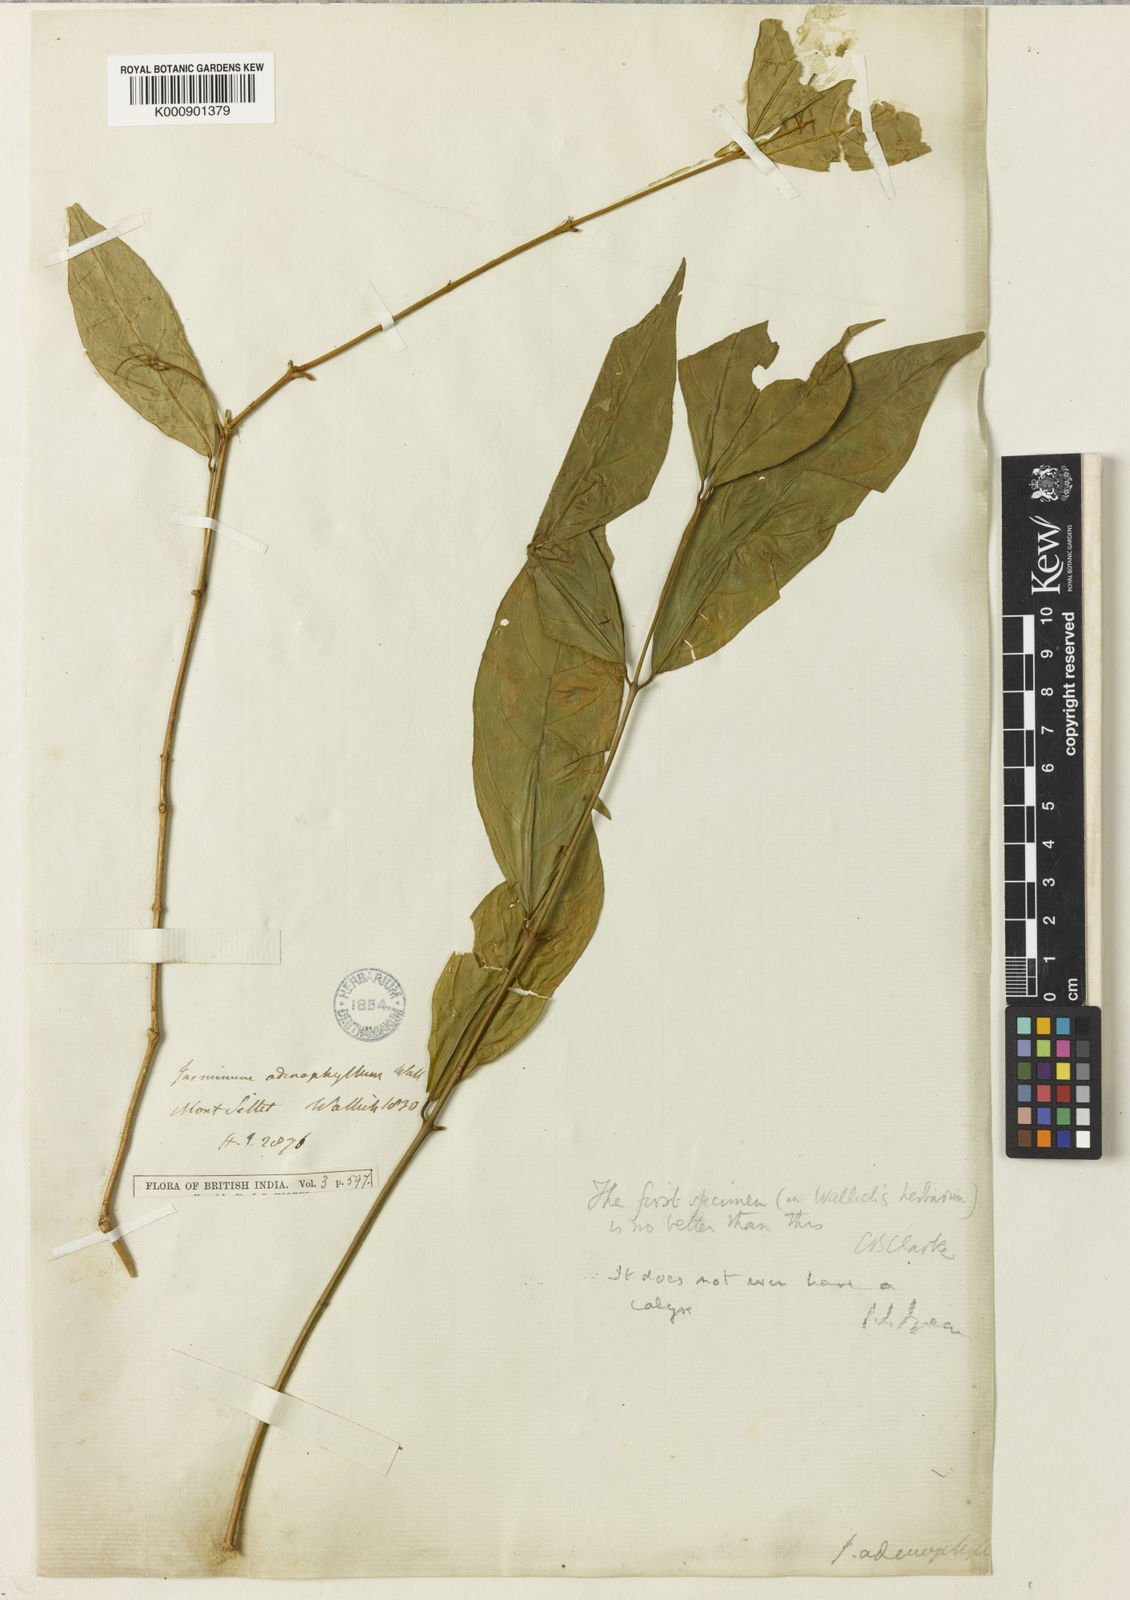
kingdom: Plantae
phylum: Tracheophyta
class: Magnoliopsida
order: Lamiales
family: Oleaceae
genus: Jasminum
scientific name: Jasminum
